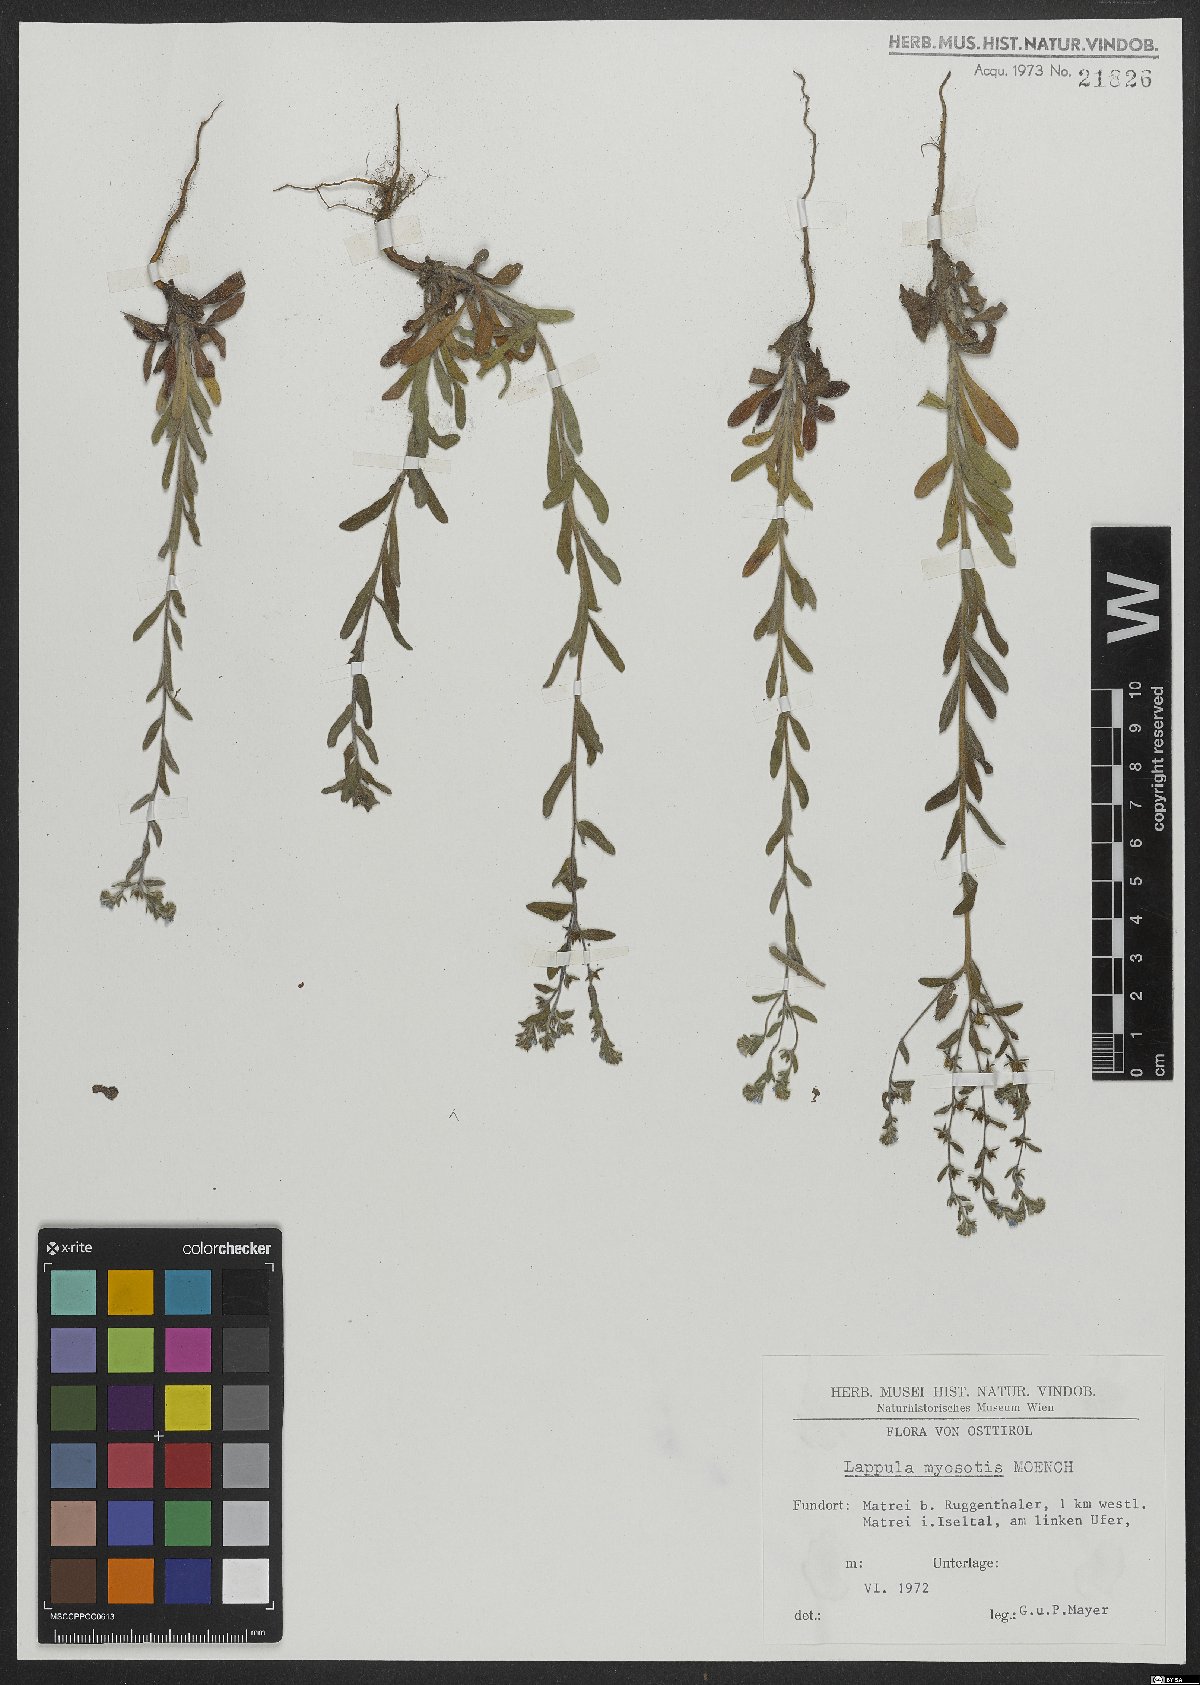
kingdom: Plantae
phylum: Tracheophyta
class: Magnoliopsida
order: Boraginales
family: Boraginaceae
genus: Lappula
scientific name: Lappula squarrosa
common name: European stickseed
